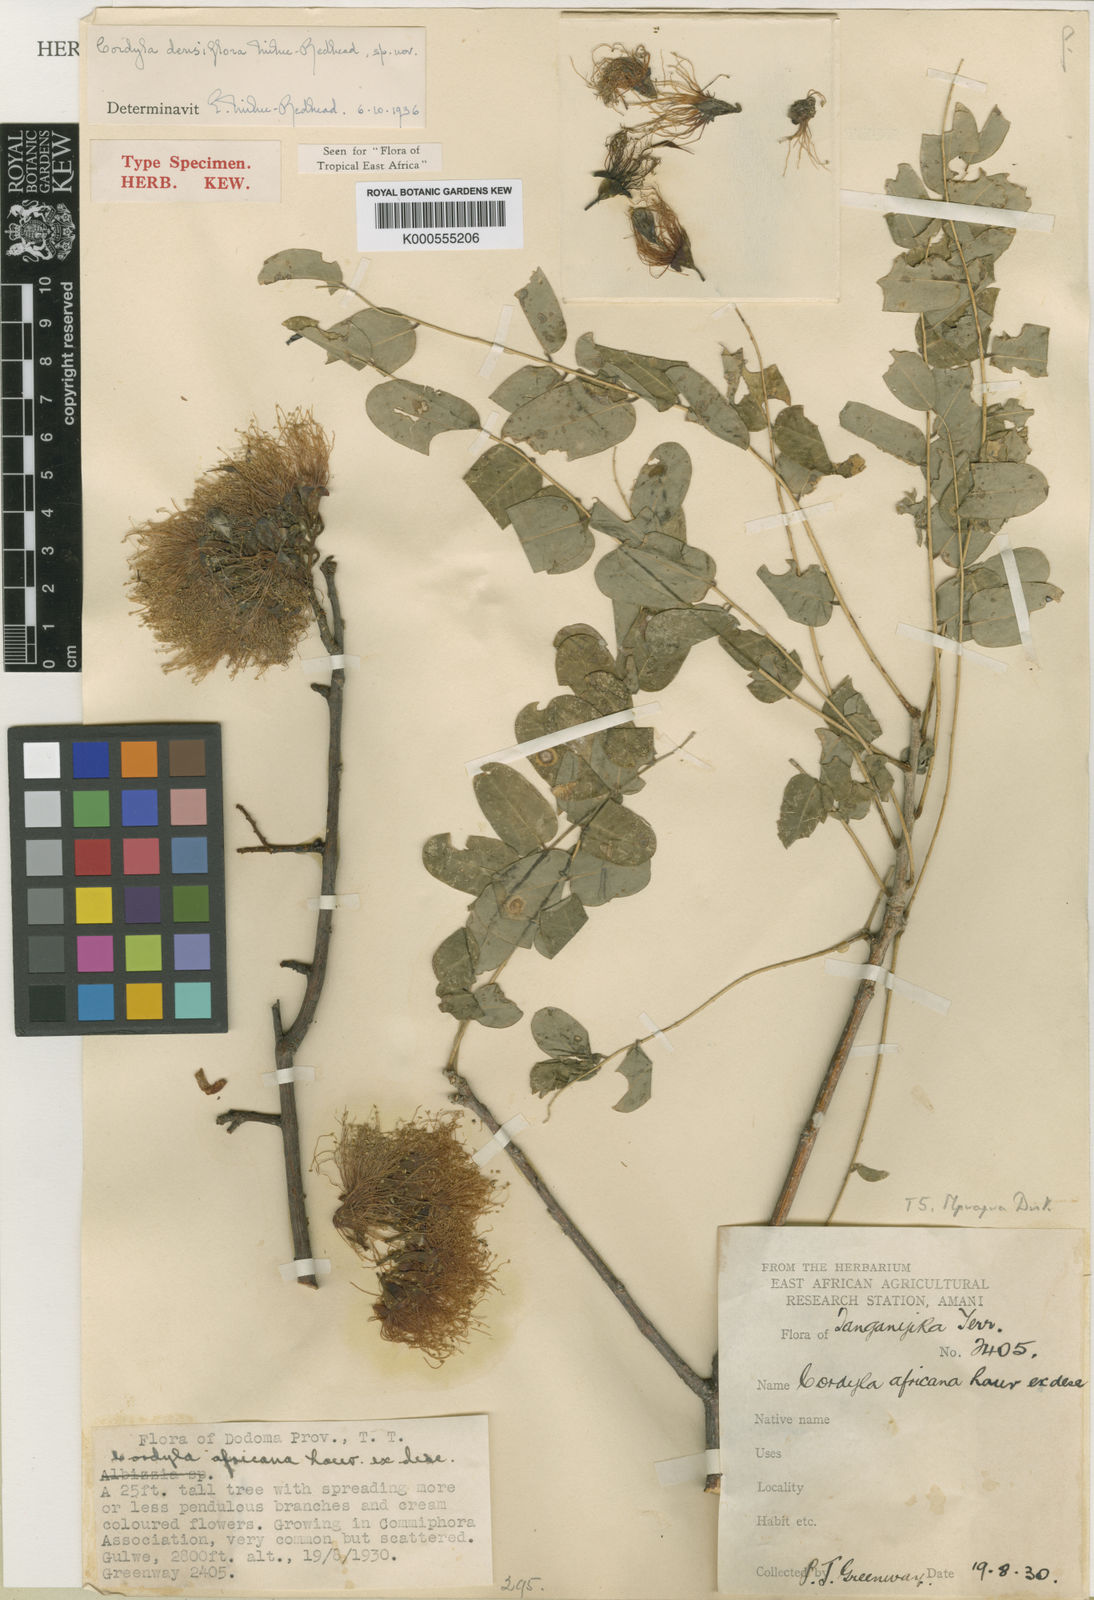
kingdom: Plantae
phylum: Tracheophyta
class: Magnoliopsida
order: Fabales
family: Fabaceae
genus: Cordyla
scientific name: Cordyla densiflora
